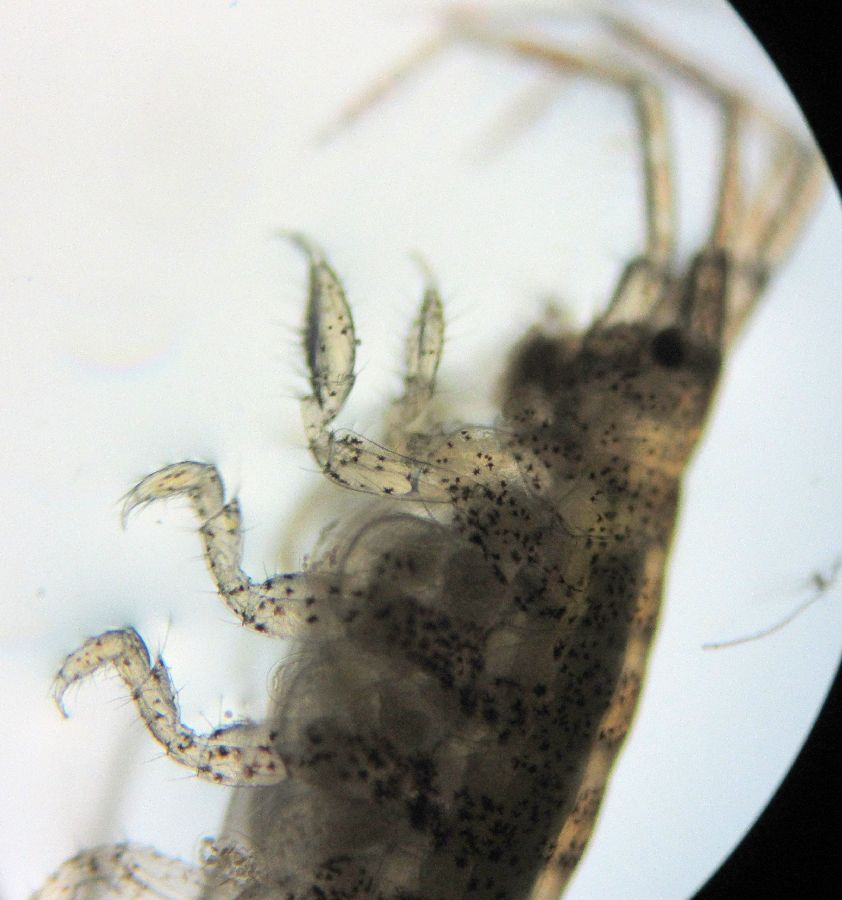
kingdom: Animalia
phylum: Arthropoda
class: Malacostraca
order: Amphipoda
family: Photidae
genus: Gammaropsis
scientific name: Gammaropsis melanops
